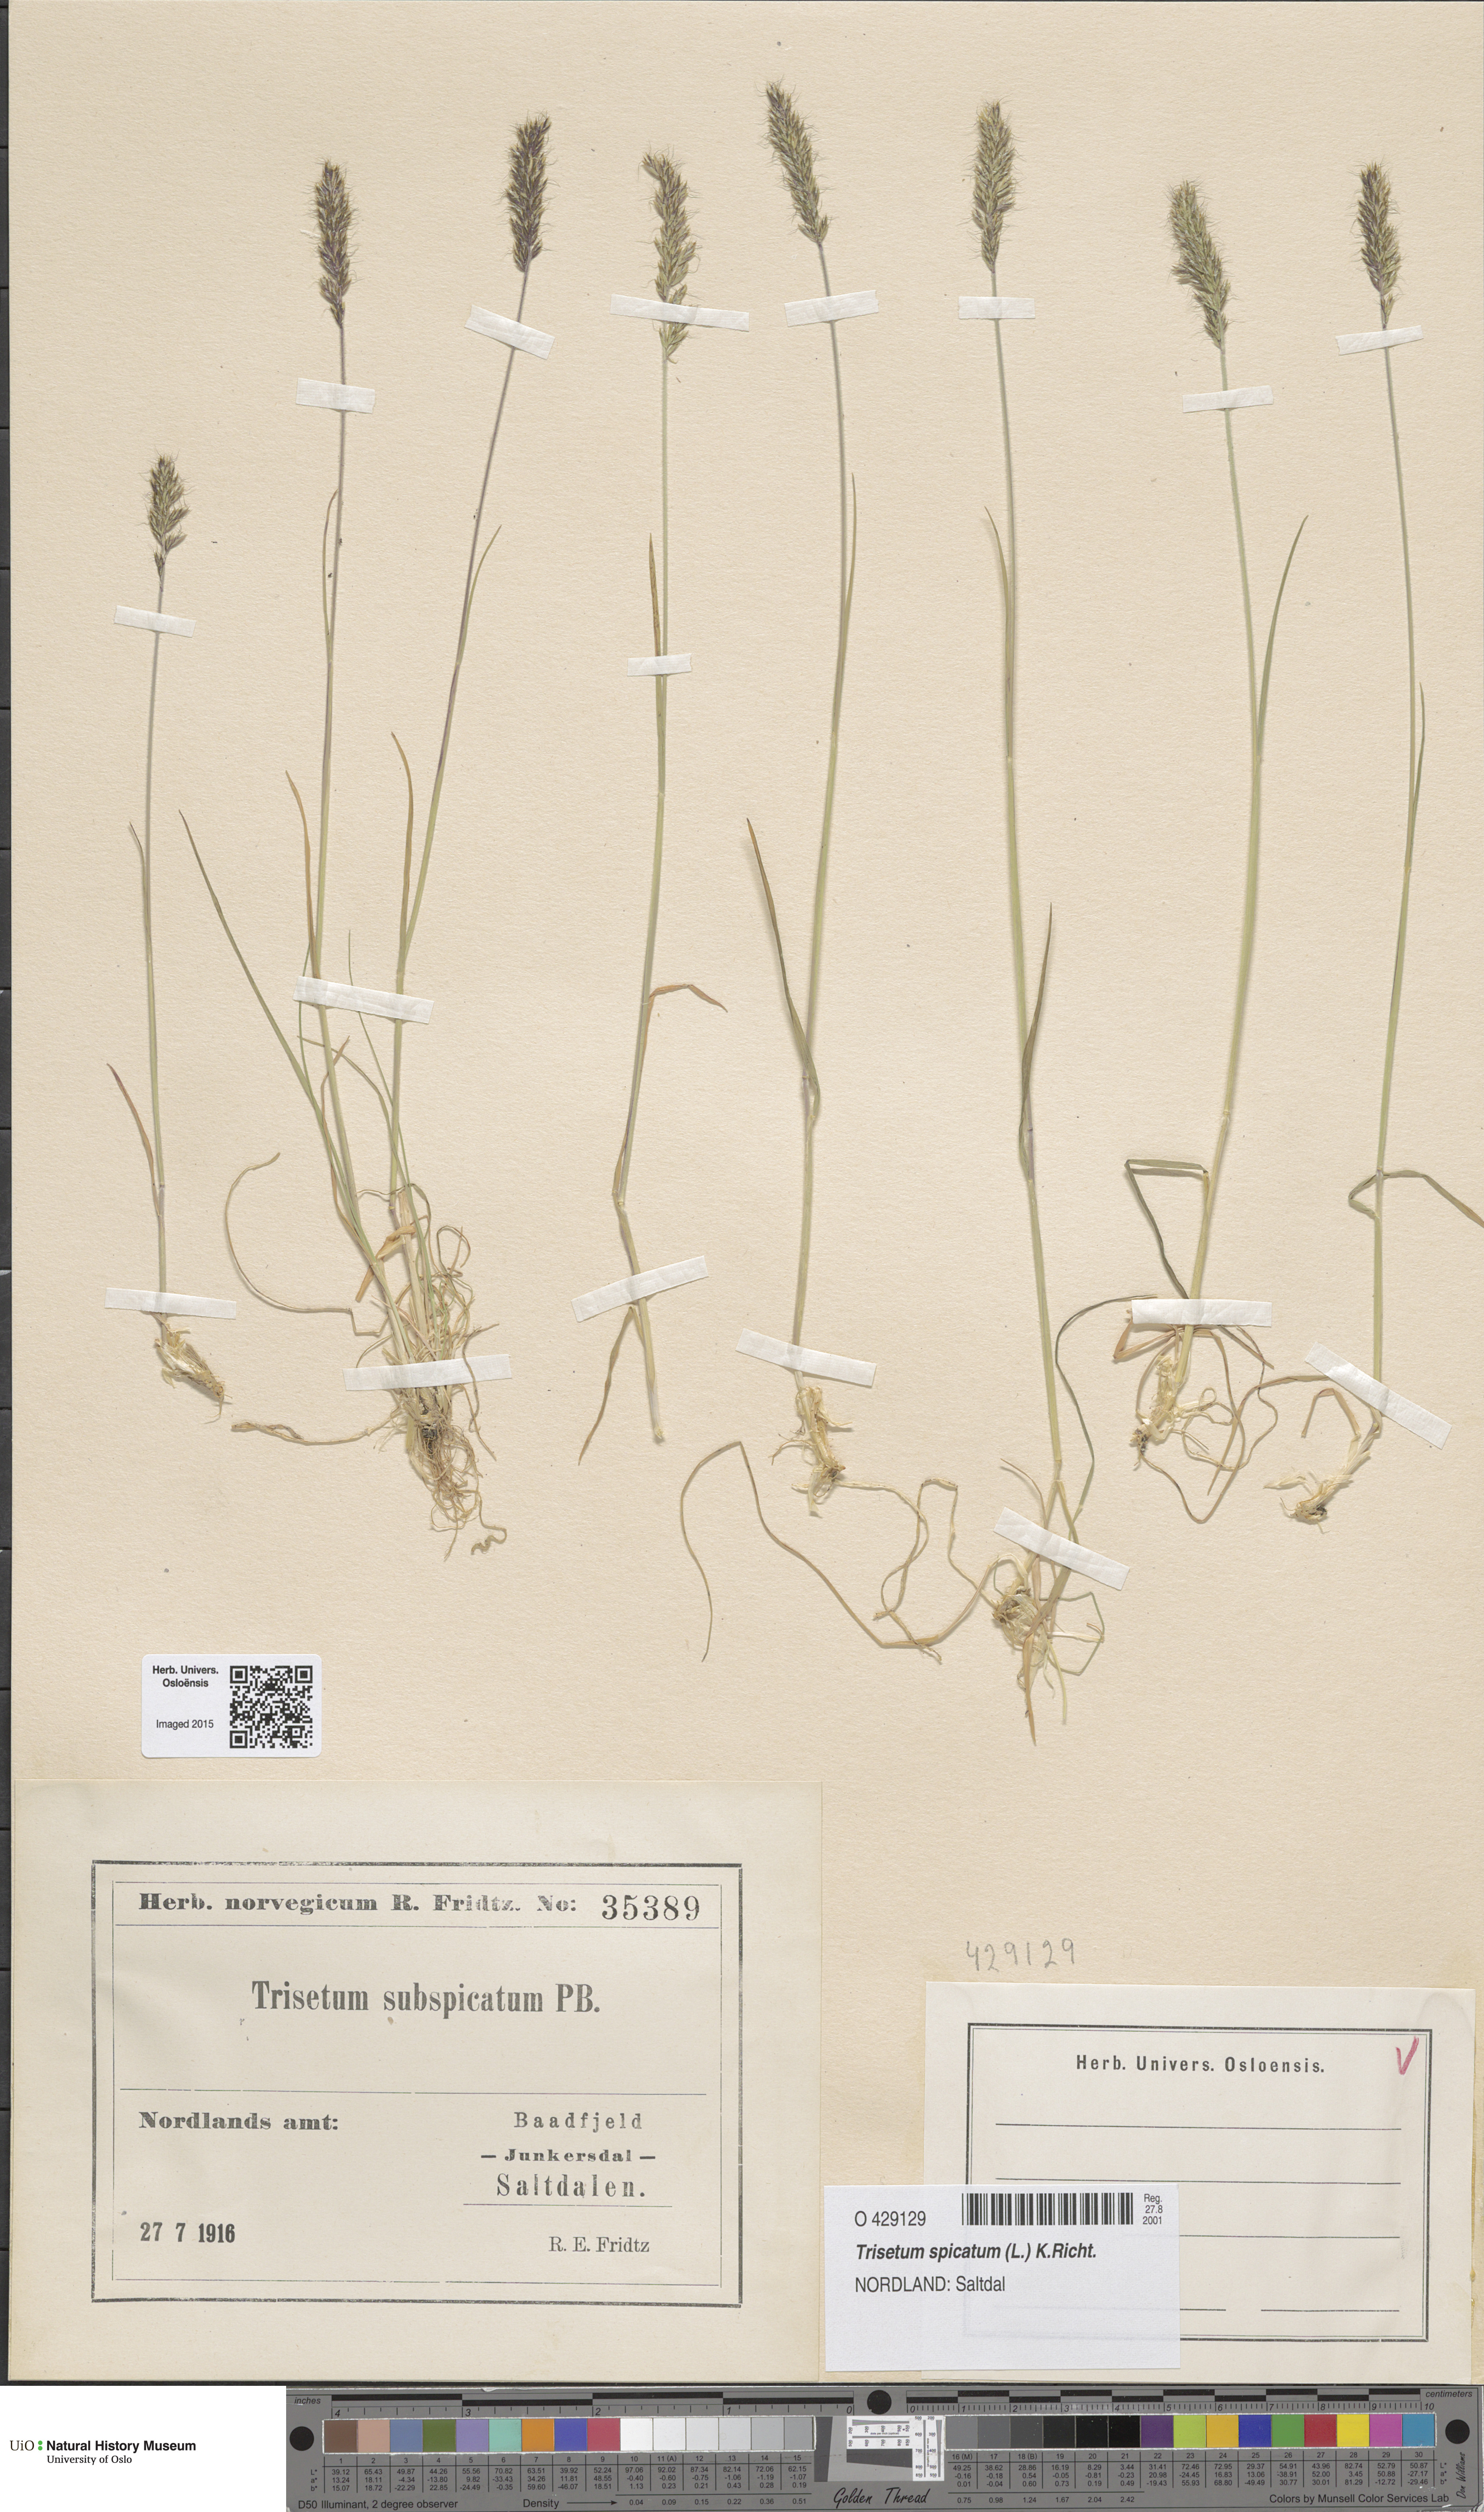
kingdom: Plantae
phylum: Tracheophyta
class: Liliopsida
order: Poales
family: Poaceae
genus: Koeleria
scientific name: Koeleria spicata
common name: Mountain trisetum
